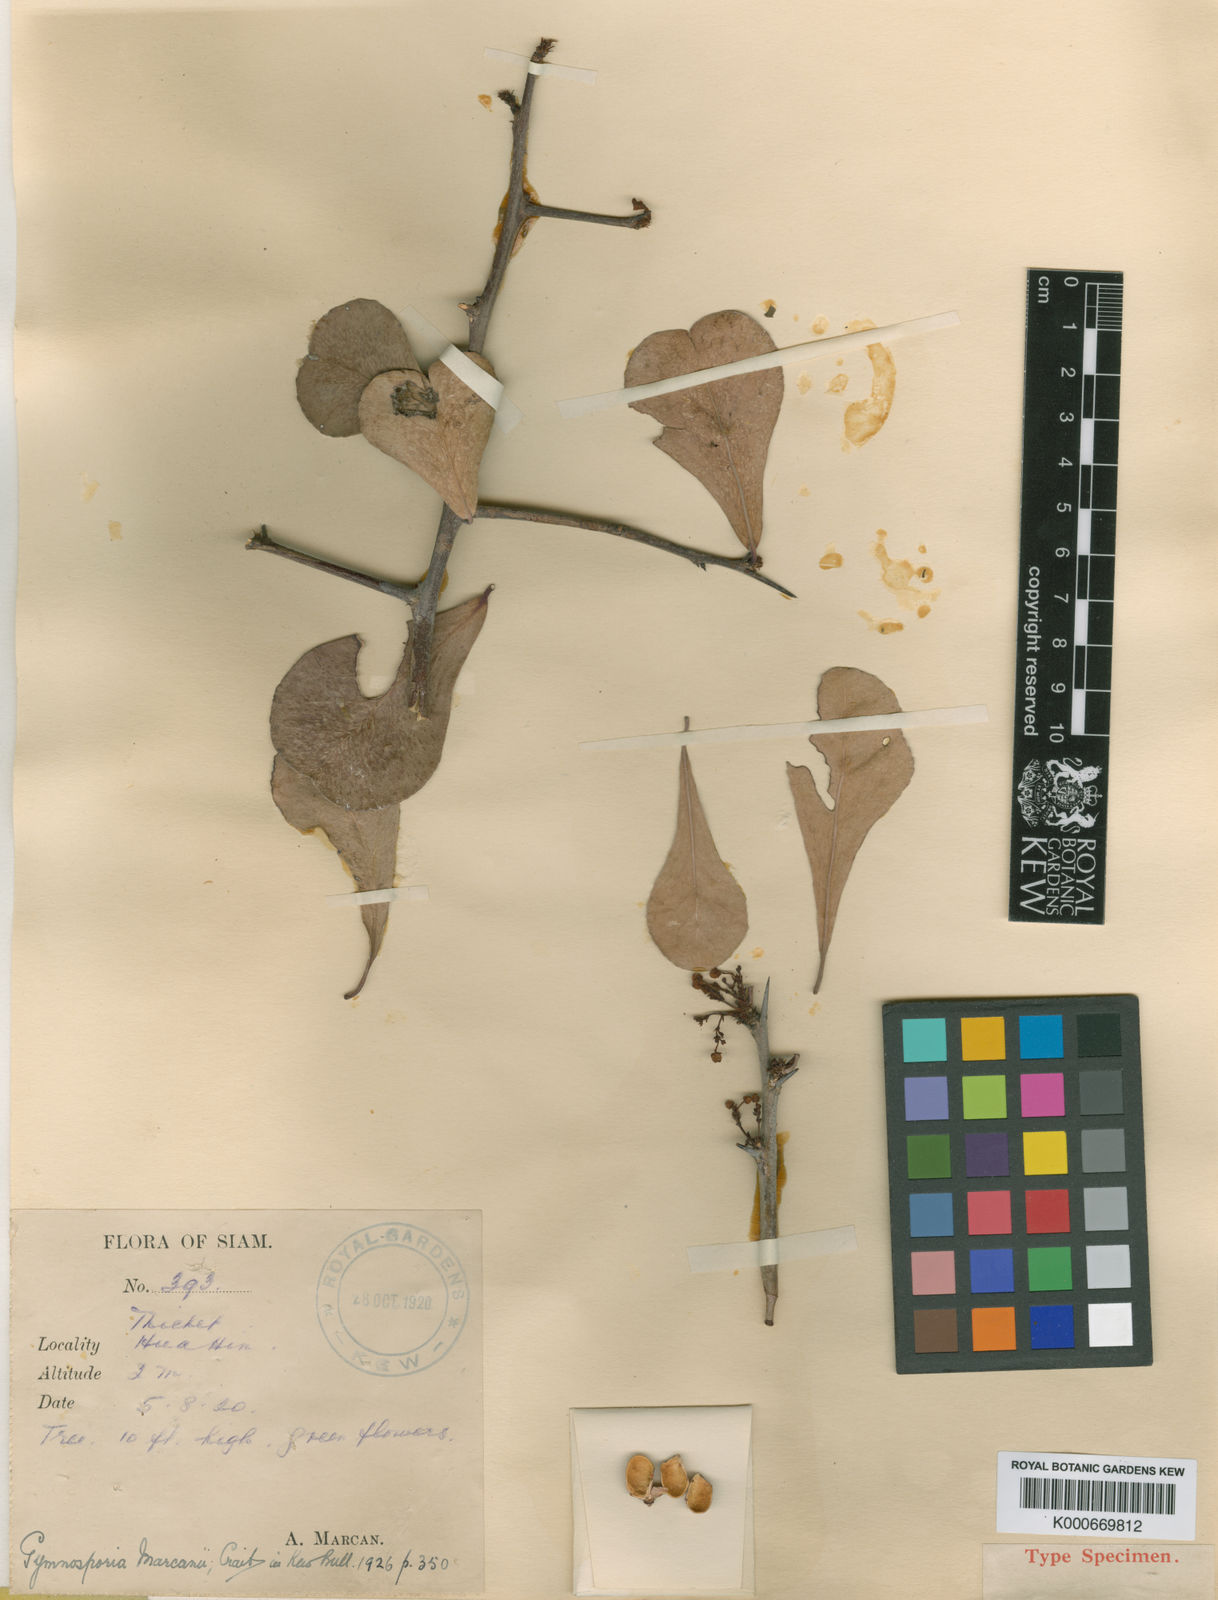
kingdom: Plantae
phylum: Tracheophyta
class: Magnoliopsida
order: Celastrales
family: Celastraceae
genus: Gymnosporia
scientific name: Gymnosporia marcanii
